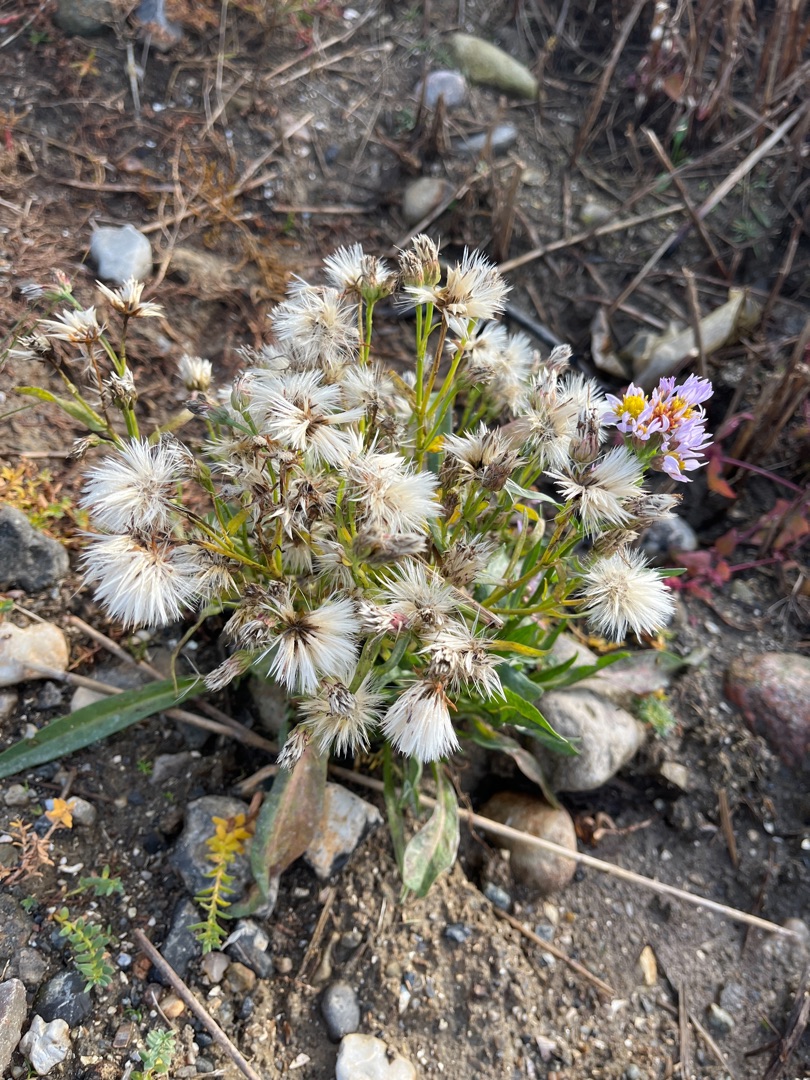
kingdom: Plantae
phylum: Tracheophyta
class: Magnoliopsida
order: Asterales
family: Asteraceae
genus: Tripolium
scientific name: Tripolium pannonicum
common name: Strandasters
